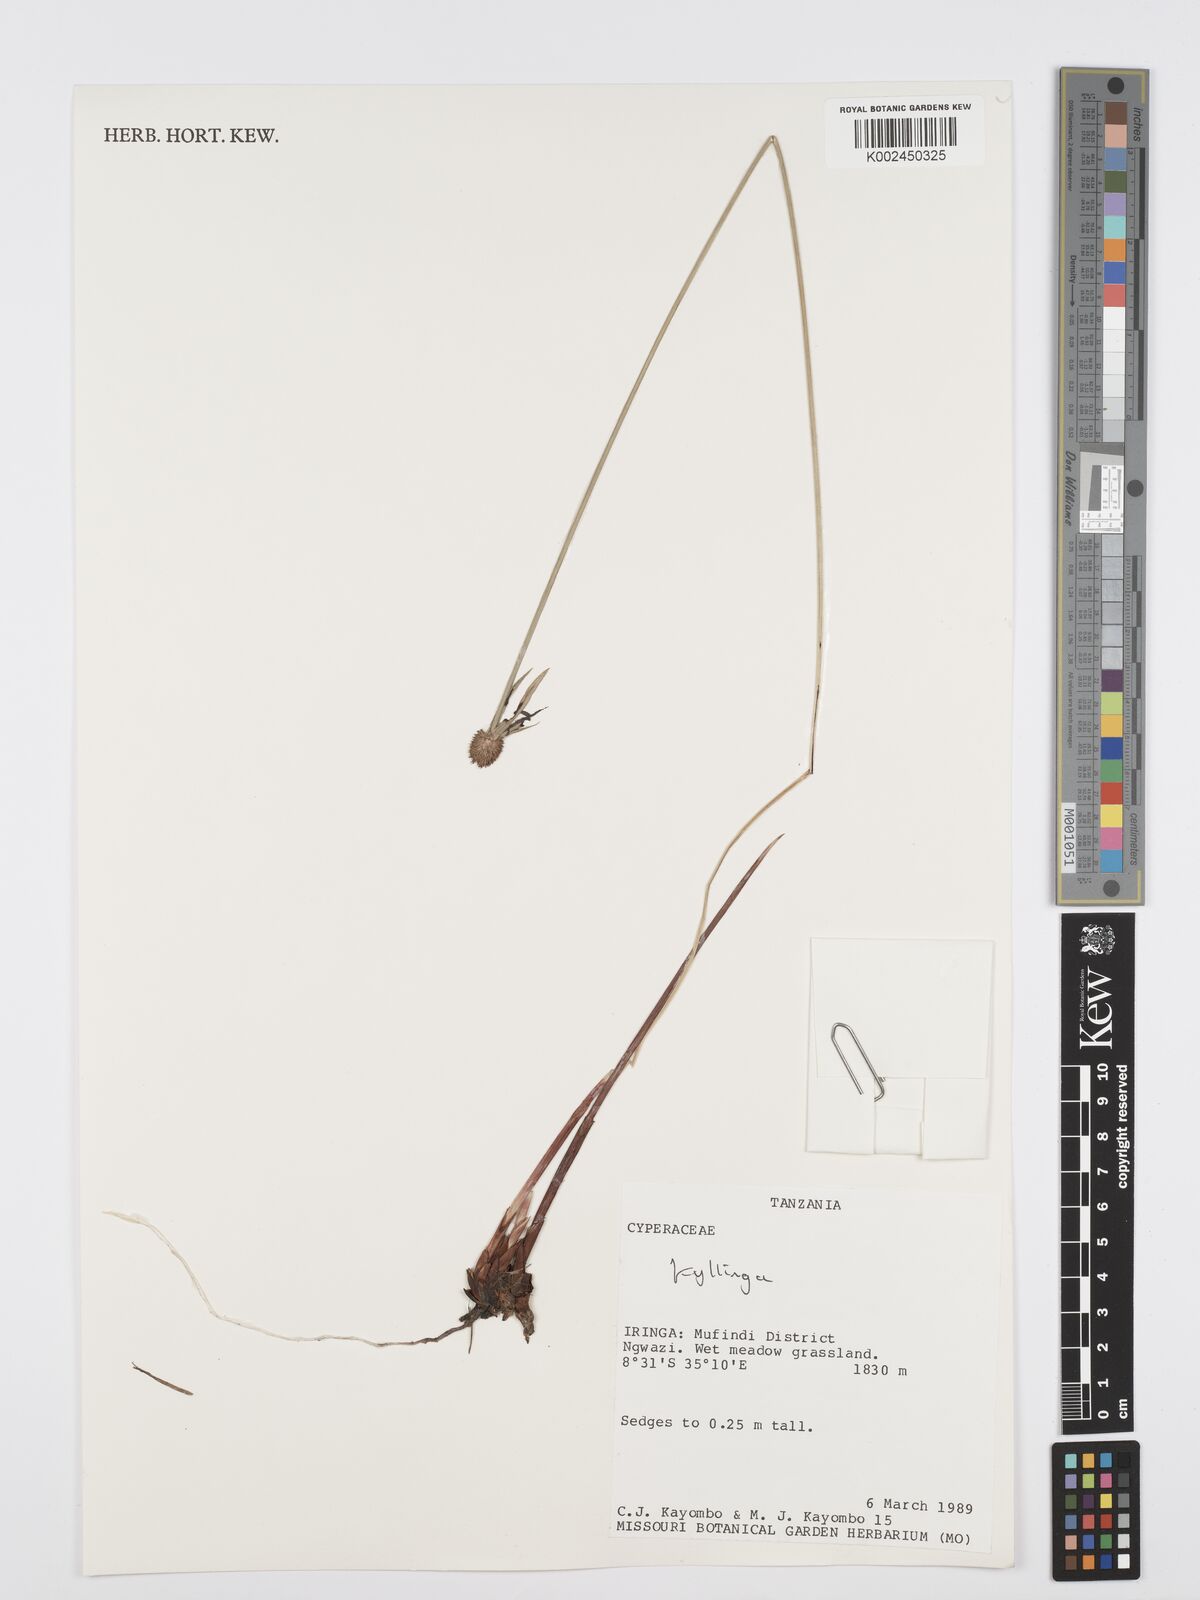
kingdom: Plantae
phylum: Tracheophyta
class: Liliopsida
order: Poales
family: Cyperaceae
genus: Cyperus
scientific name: Cyperus
